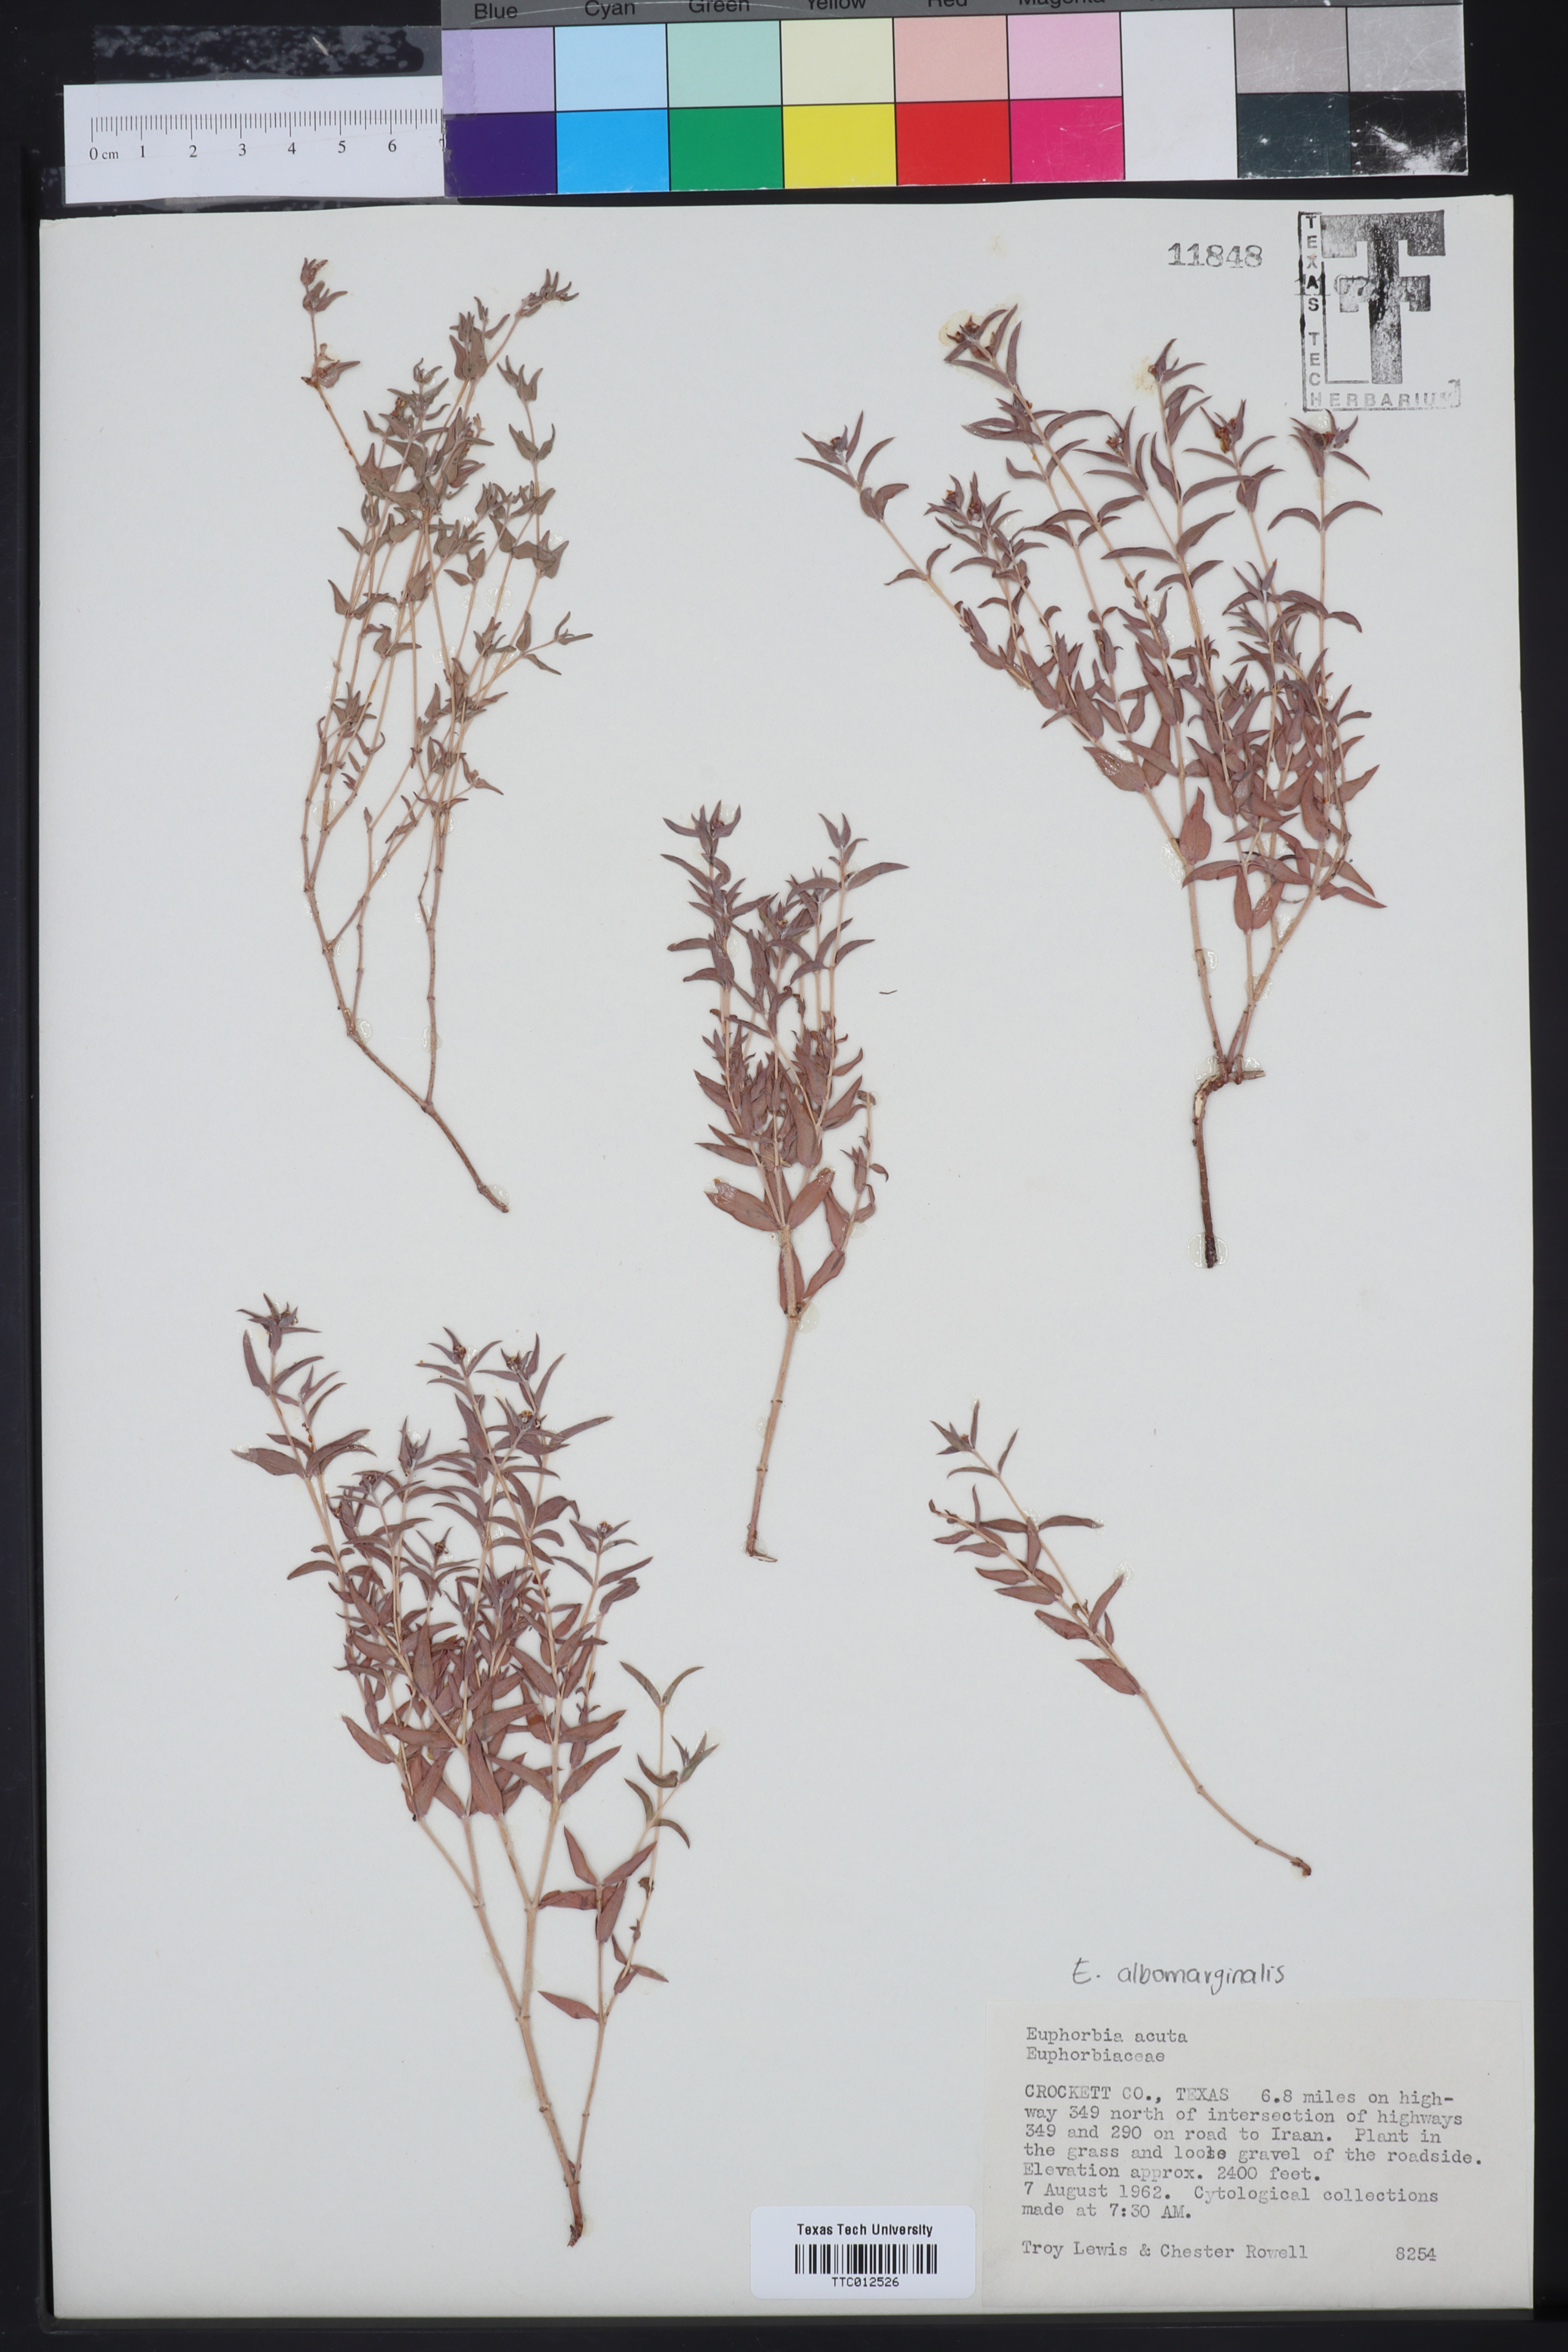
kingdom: Plantae
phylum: Tracheophyta
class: Magnoliopsida
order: Malpighiales
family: Euphorbiaceae
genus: Euphorbia
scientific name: Euphorbia acuta
